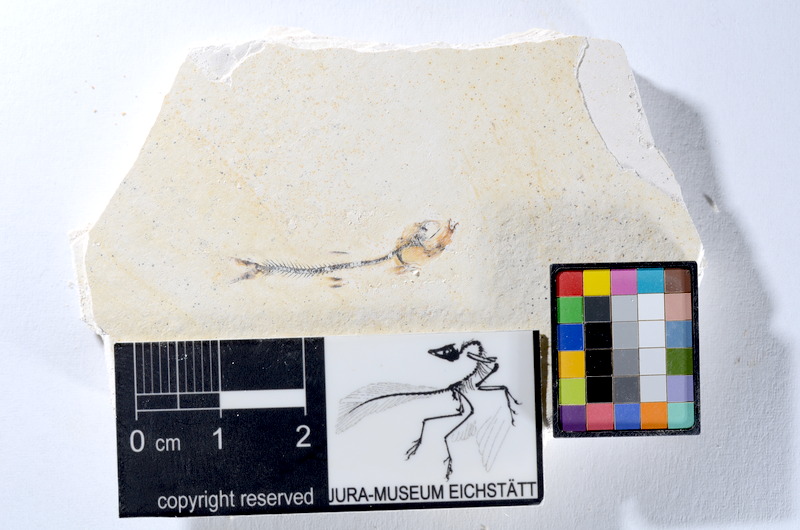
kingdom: Animalia
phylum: Chordata
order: Salmoniformes
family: Orthogonikleithridae
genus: Orthogonikleithrus
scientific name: Orthogonikleithrus hoelli
